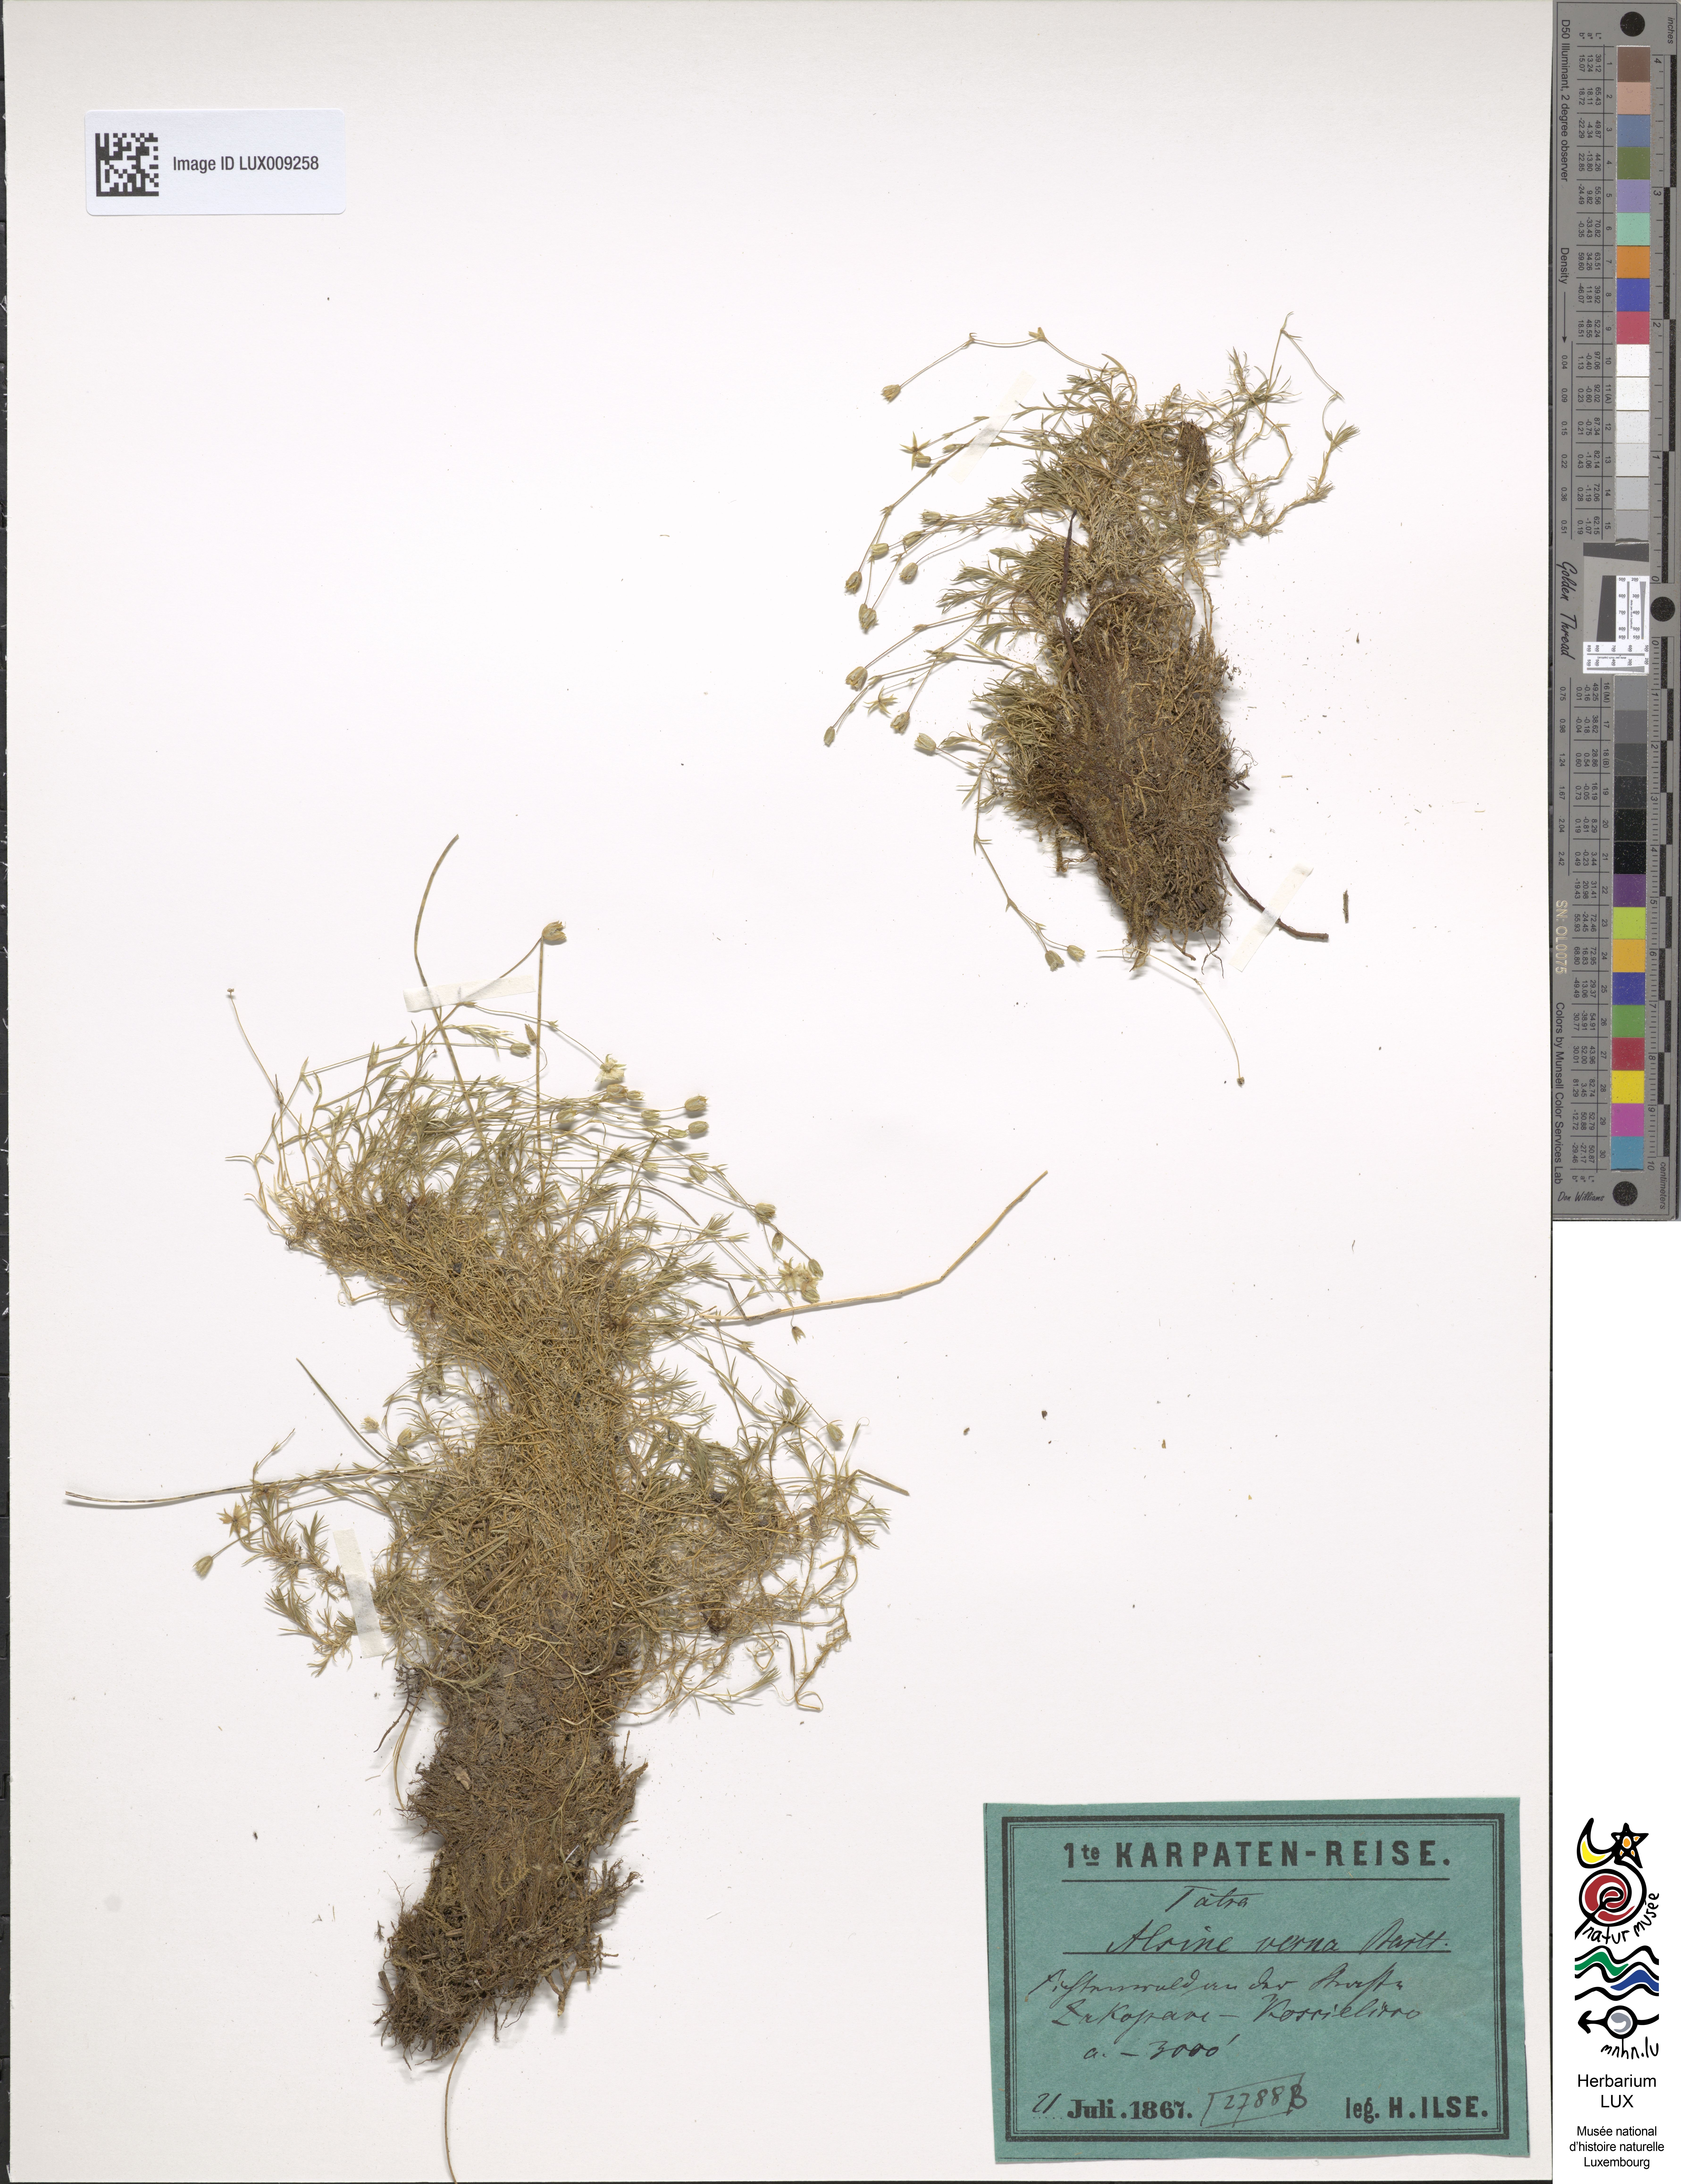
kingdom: Plantae
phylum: Tracheophyta
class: Magnoliopsida
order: Caryophyllales
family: Caryophyllaceae
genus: Sabulina
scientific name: Sabulina verna
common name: Spring sandwort
